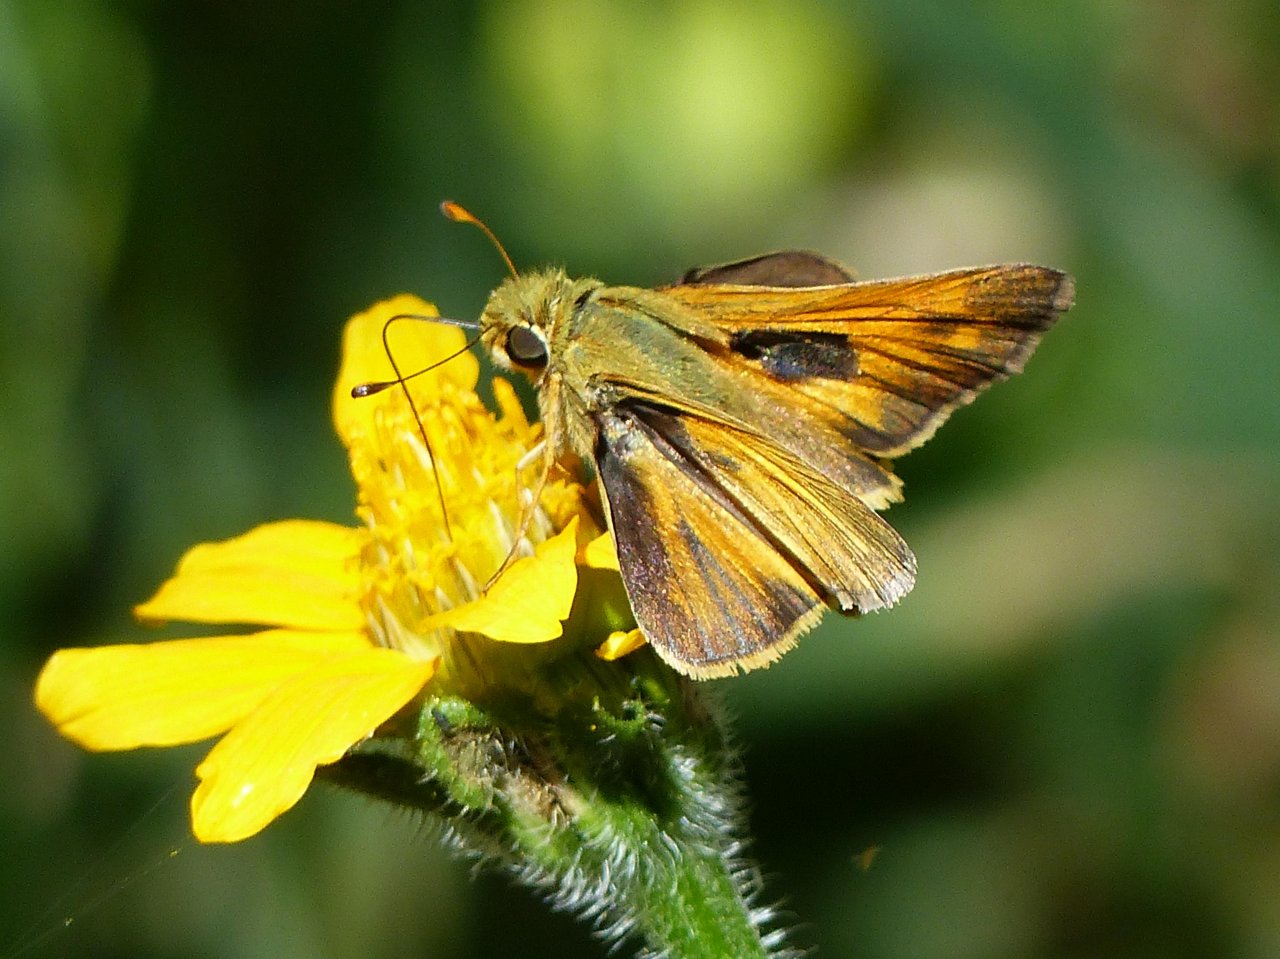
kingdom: Animalia
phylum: Arthropoda
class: Insecta
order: Lepidoptera
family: Hesperiidae
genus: Atalopedes
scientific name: Atalopedes campestris
